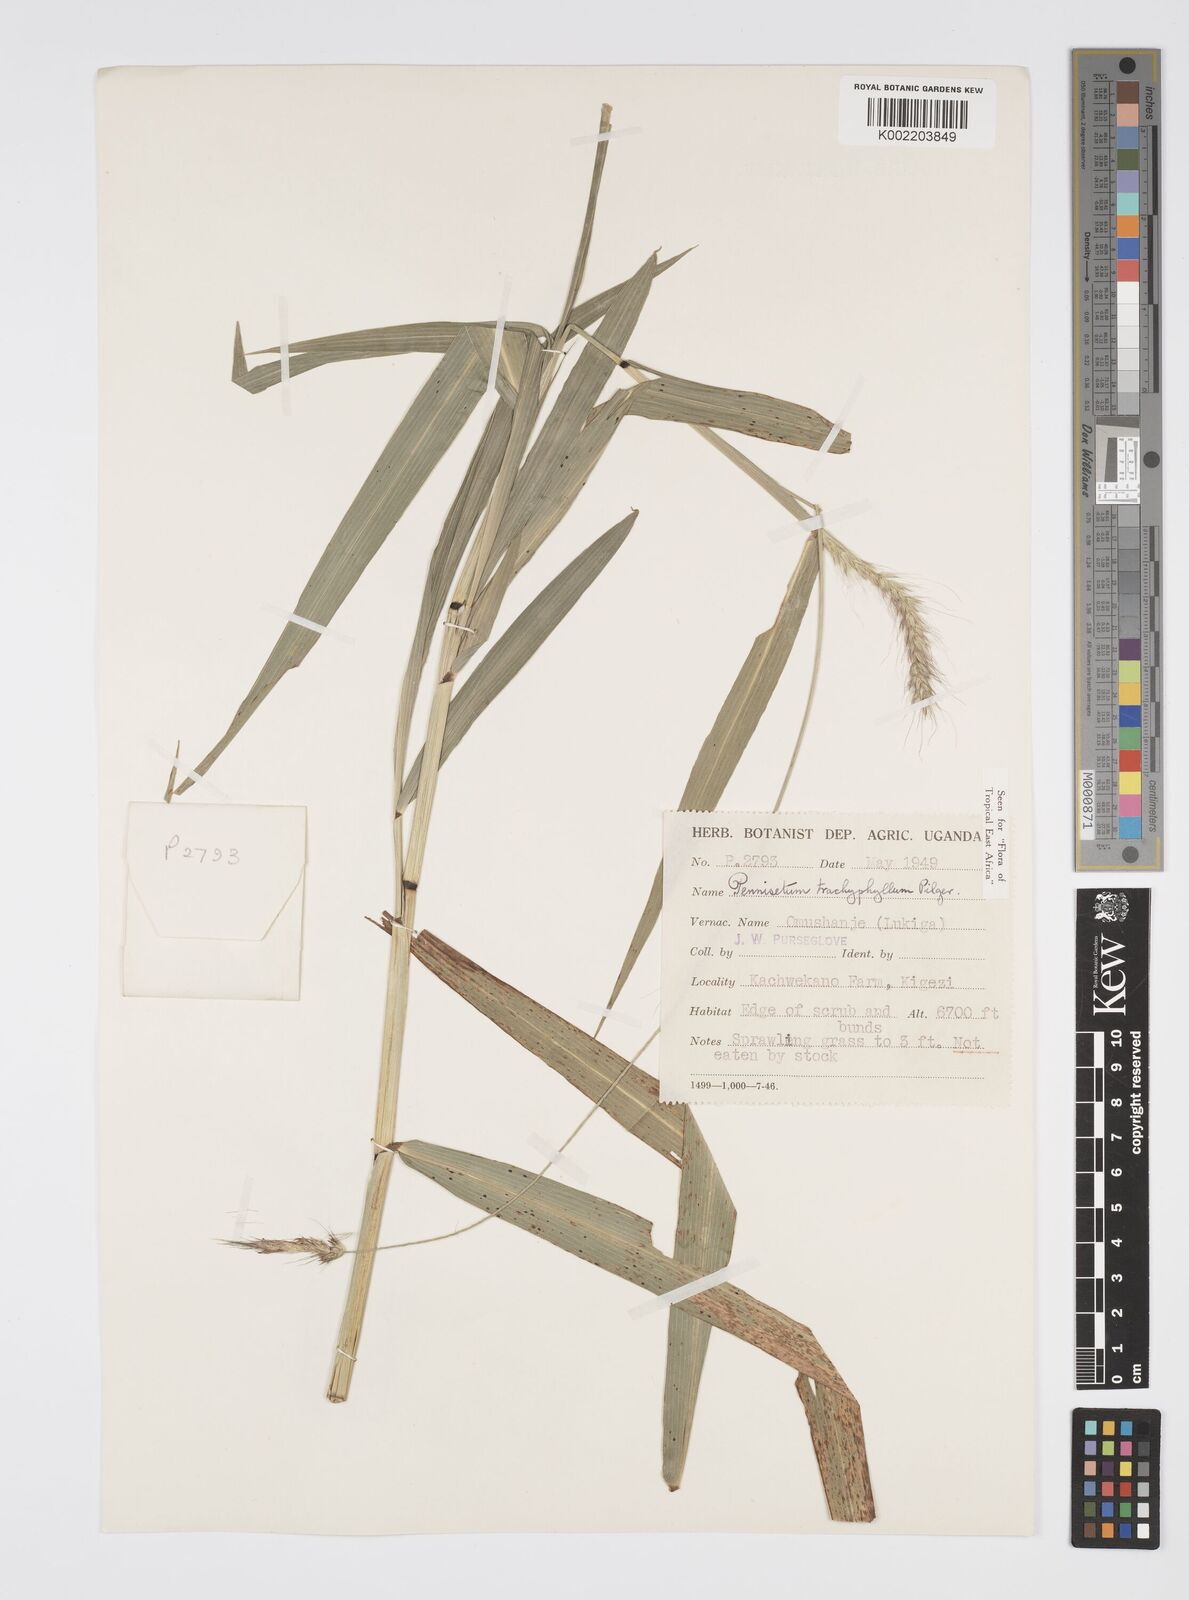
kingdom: Plantae
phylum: Tracheophyta
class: Liliopsida
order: Poales
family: Poaceae
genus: Cenchrus
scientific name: Cenchrus trachyphyllus
